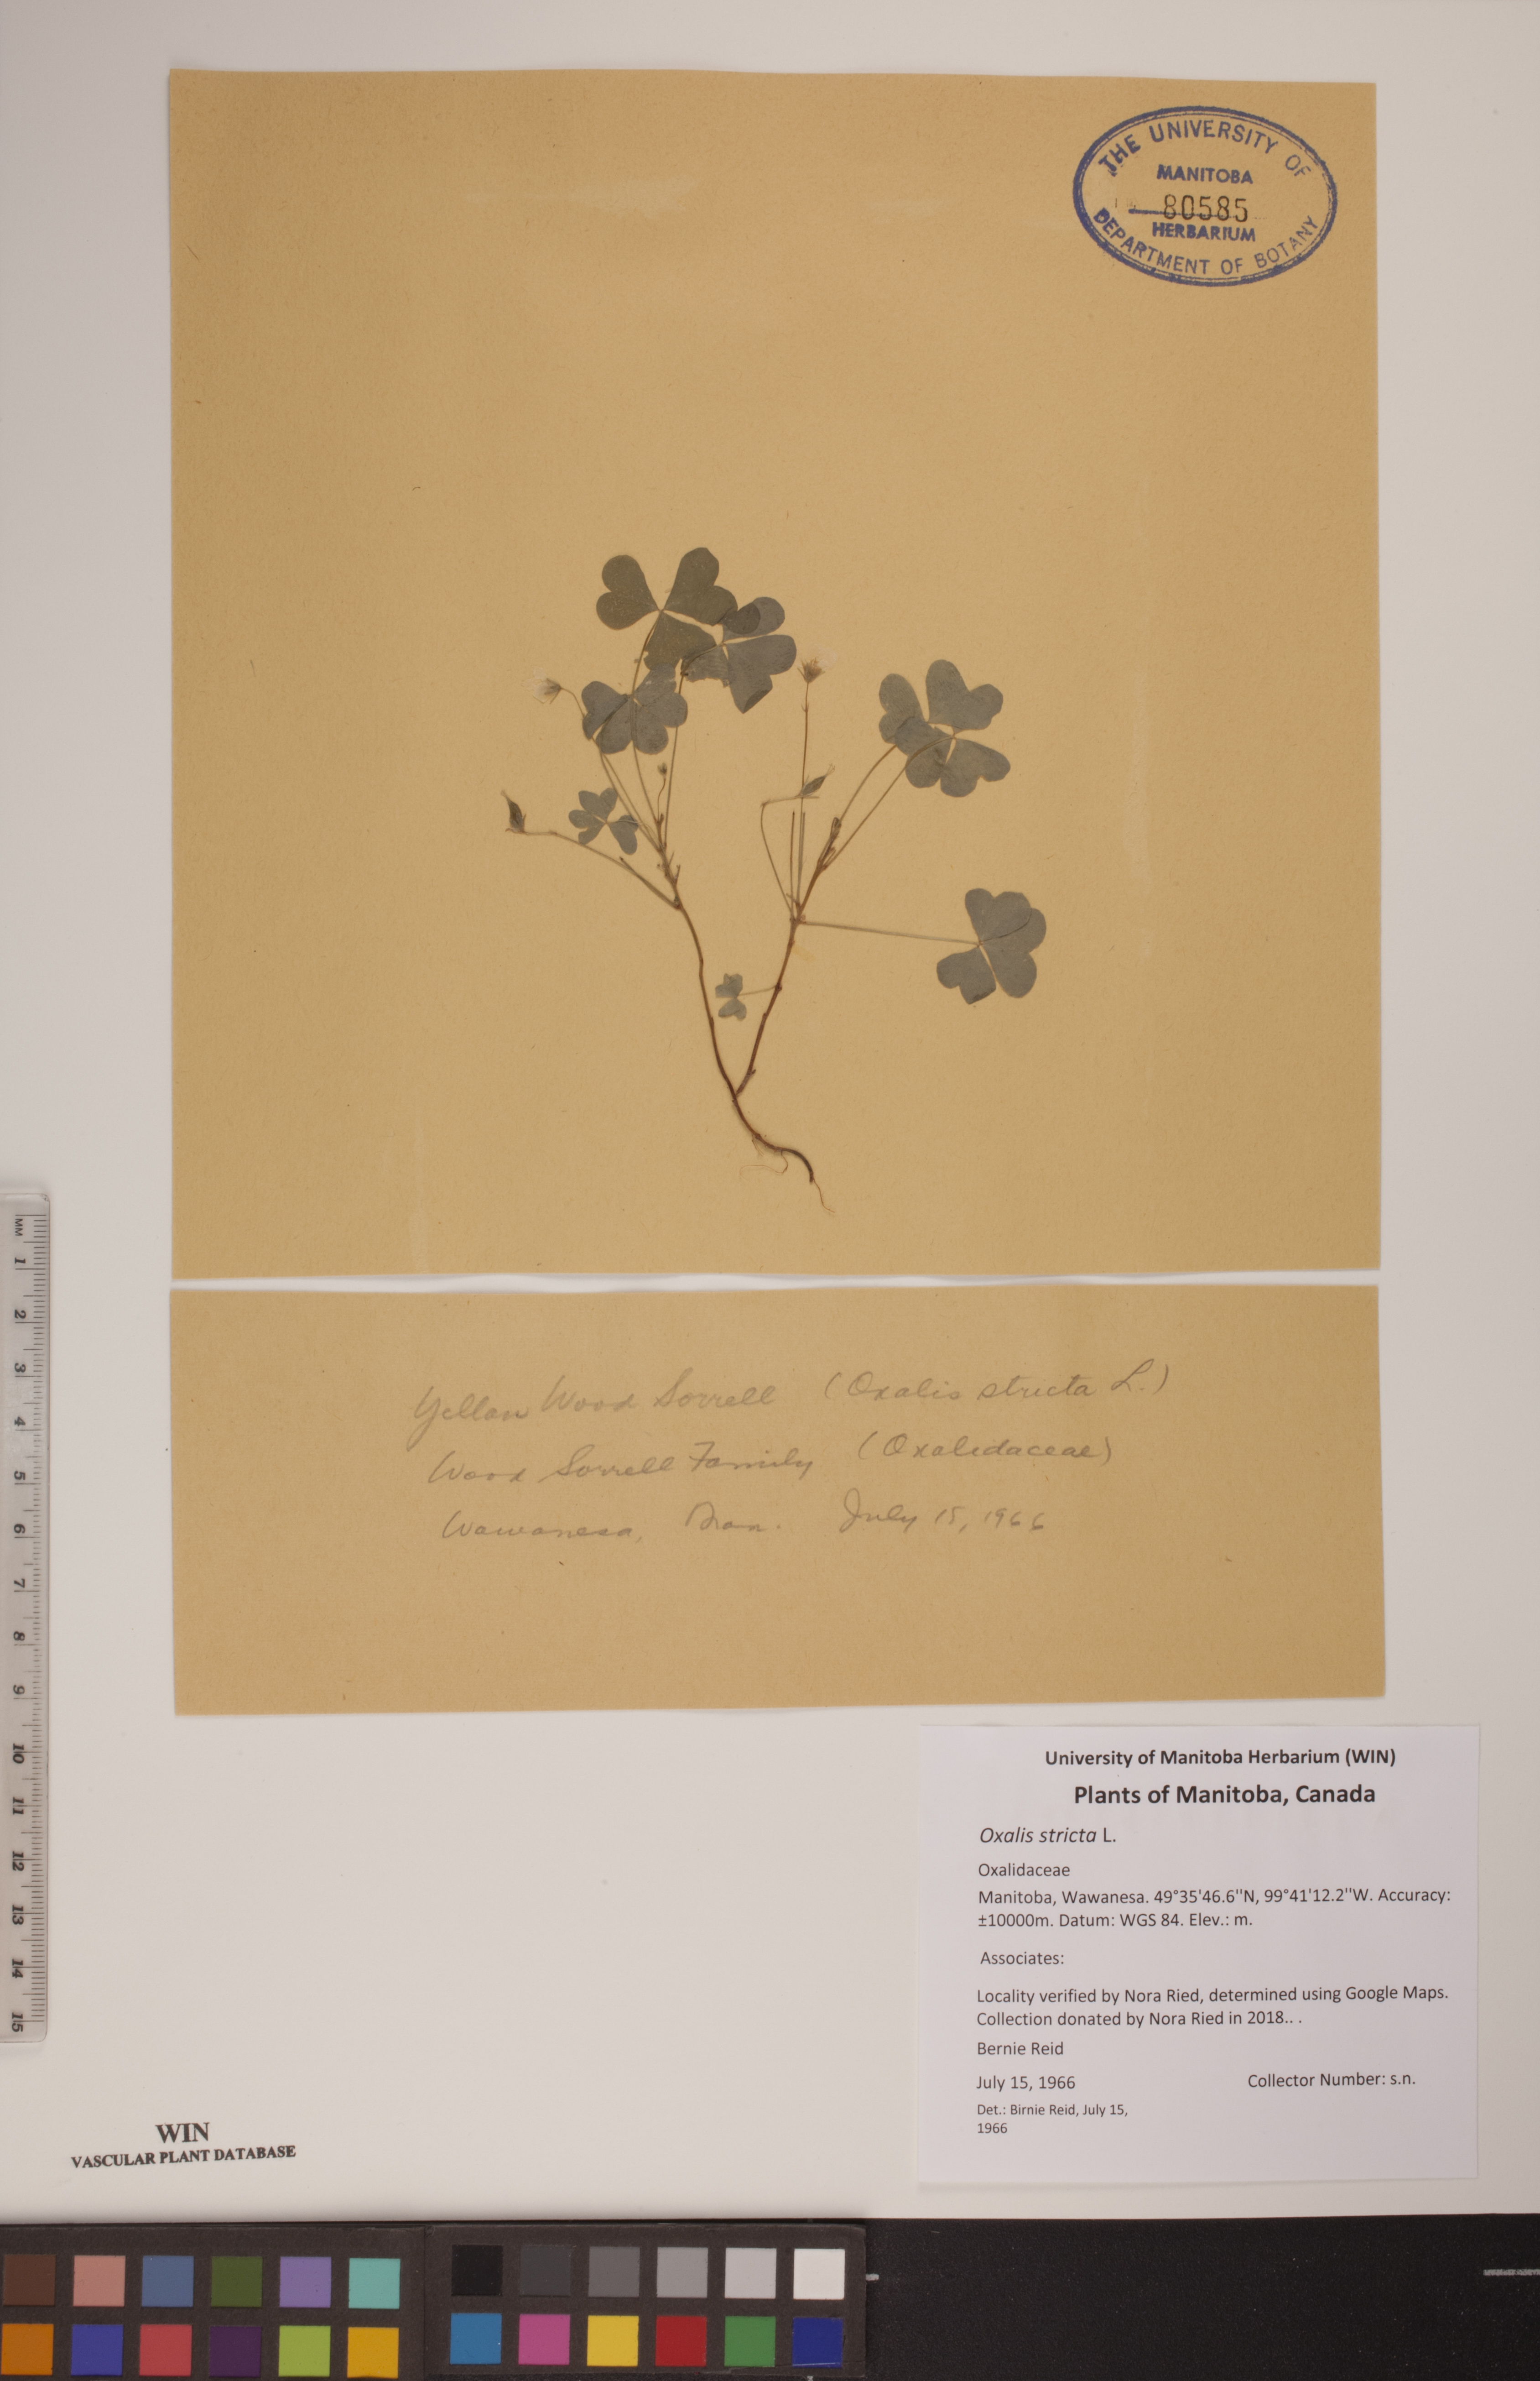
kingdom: Plantae
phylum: Tracheophyta
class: Magnoliopsida
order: Oxalidales
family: Oxalidaceae
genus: Oxalis
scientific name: Oxalis stricta
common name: Upright yellow-sorrel
